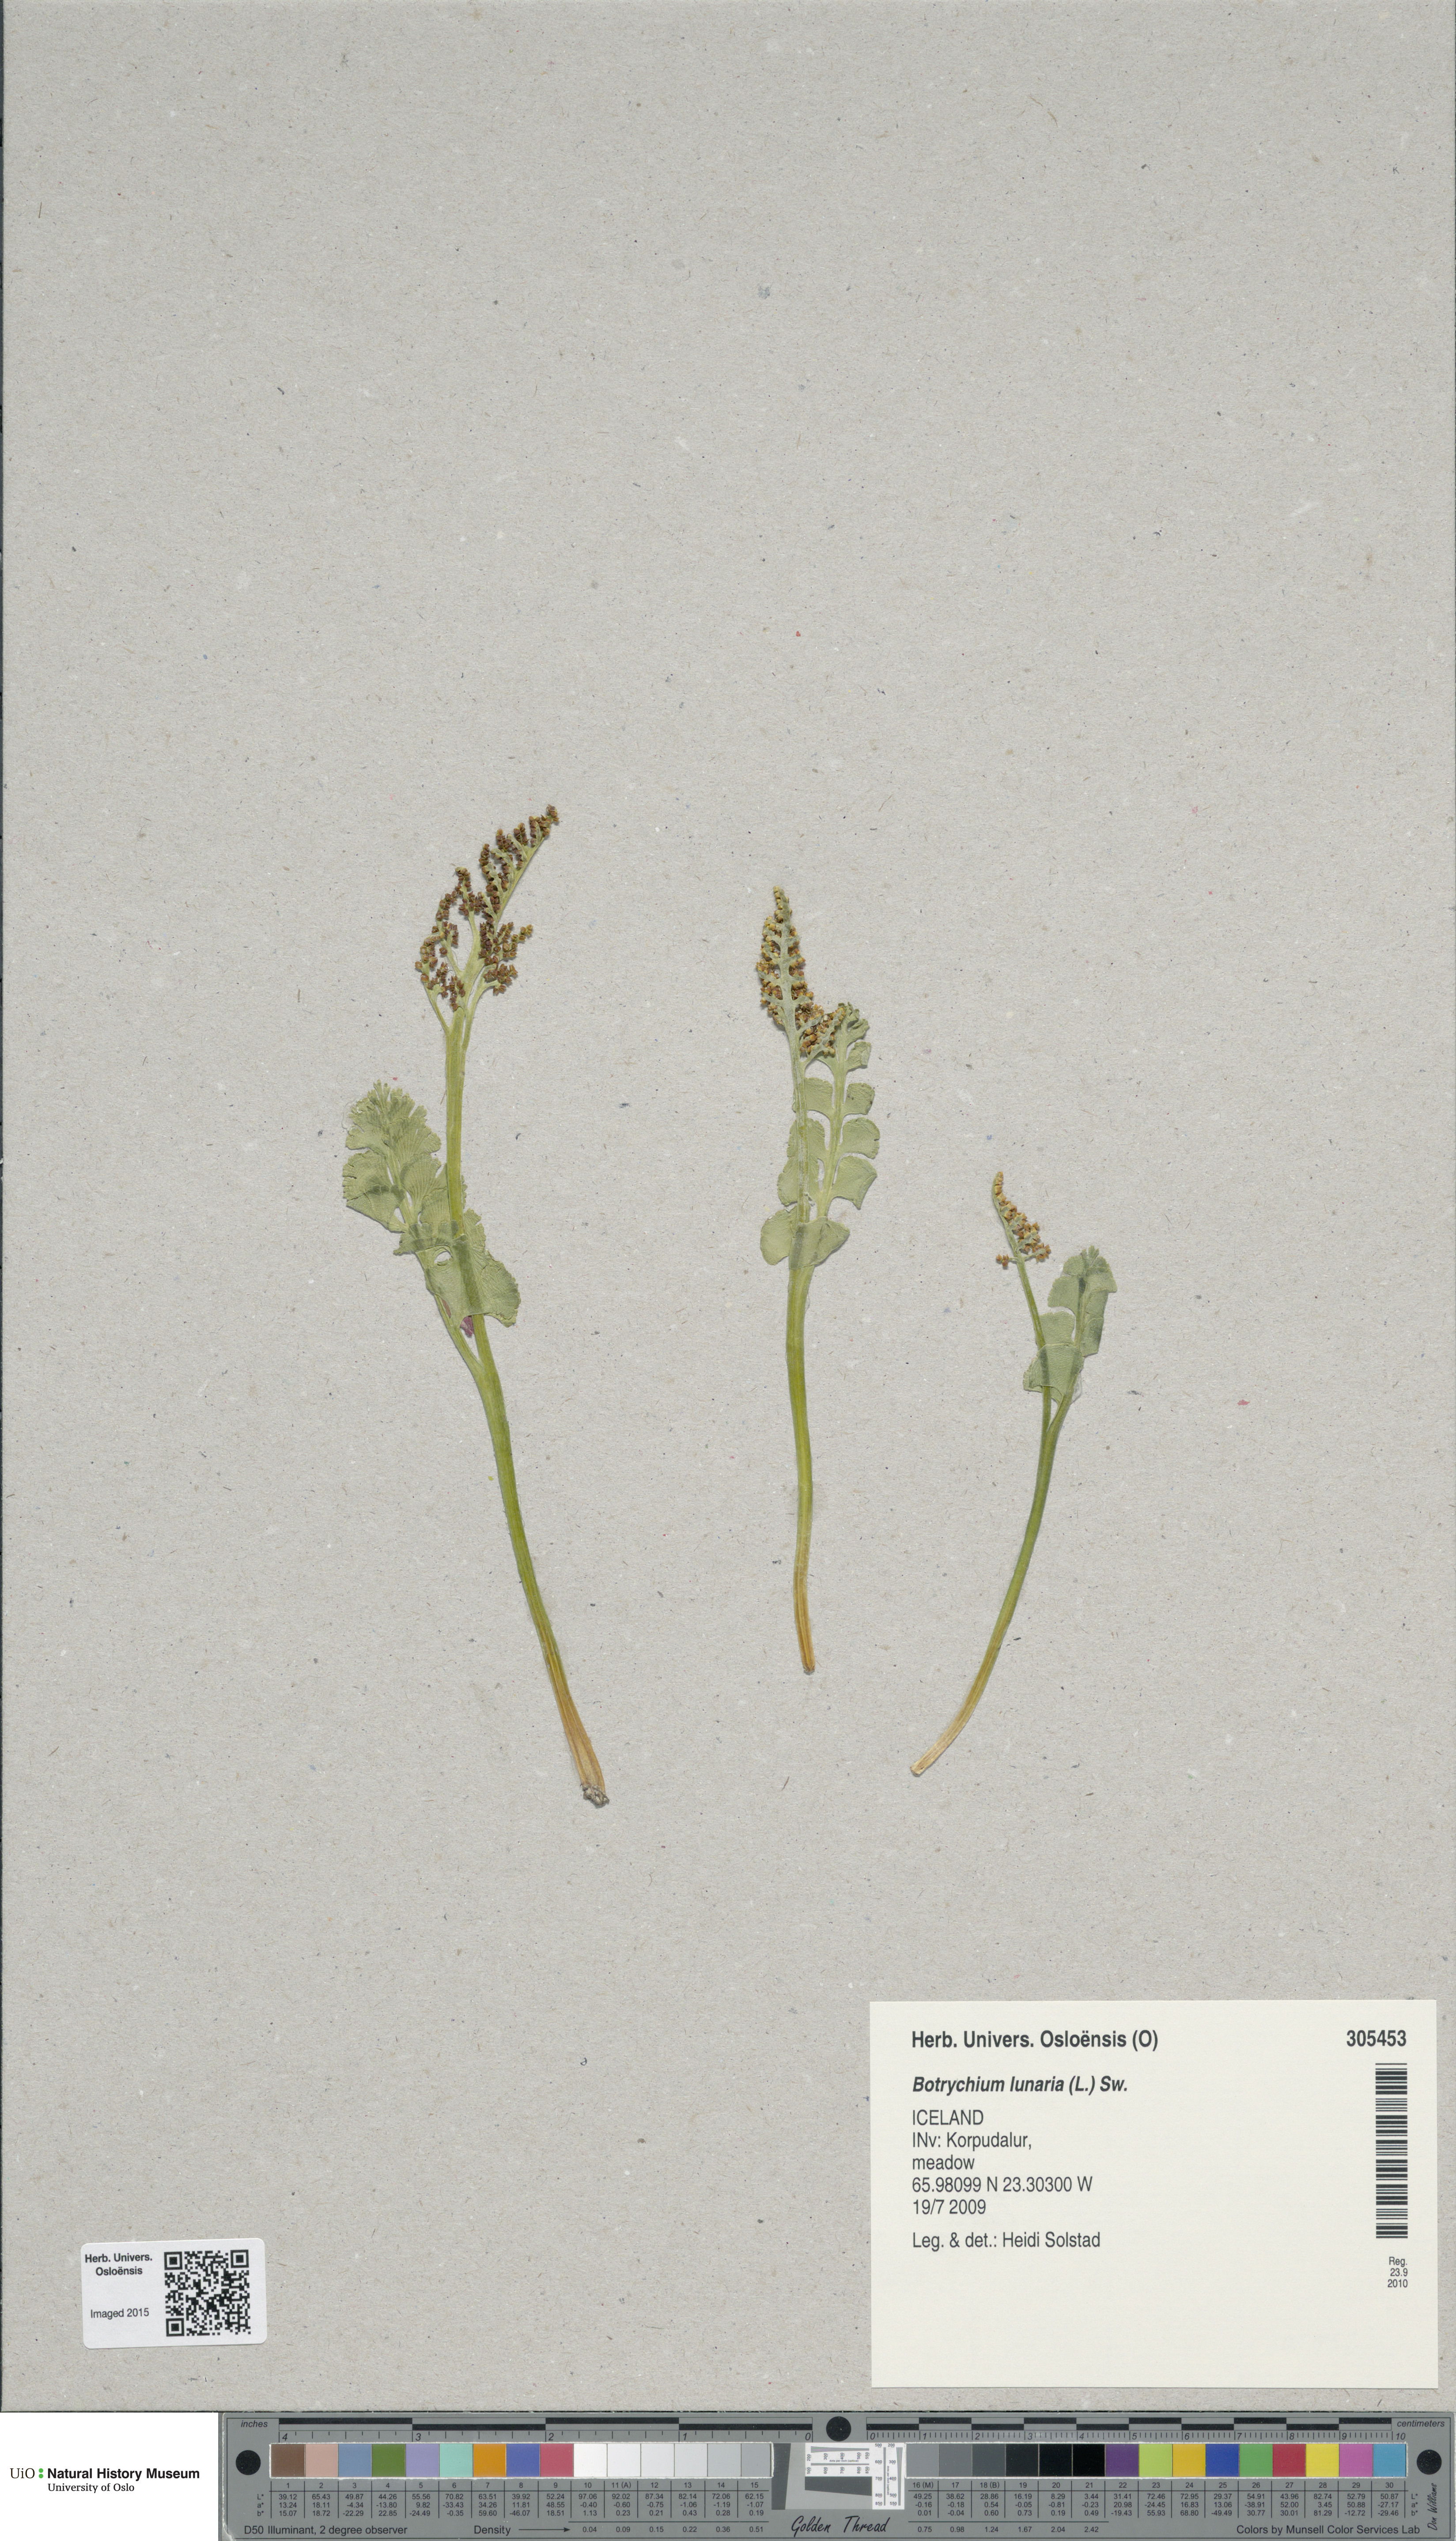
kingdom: Plantae
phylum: Tracheophyta
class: Polypodiopsida
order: Ophioglossales
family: Ophioglossaceae
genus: Botrychium
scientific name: Botrychium lunaria
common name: Moonwort
